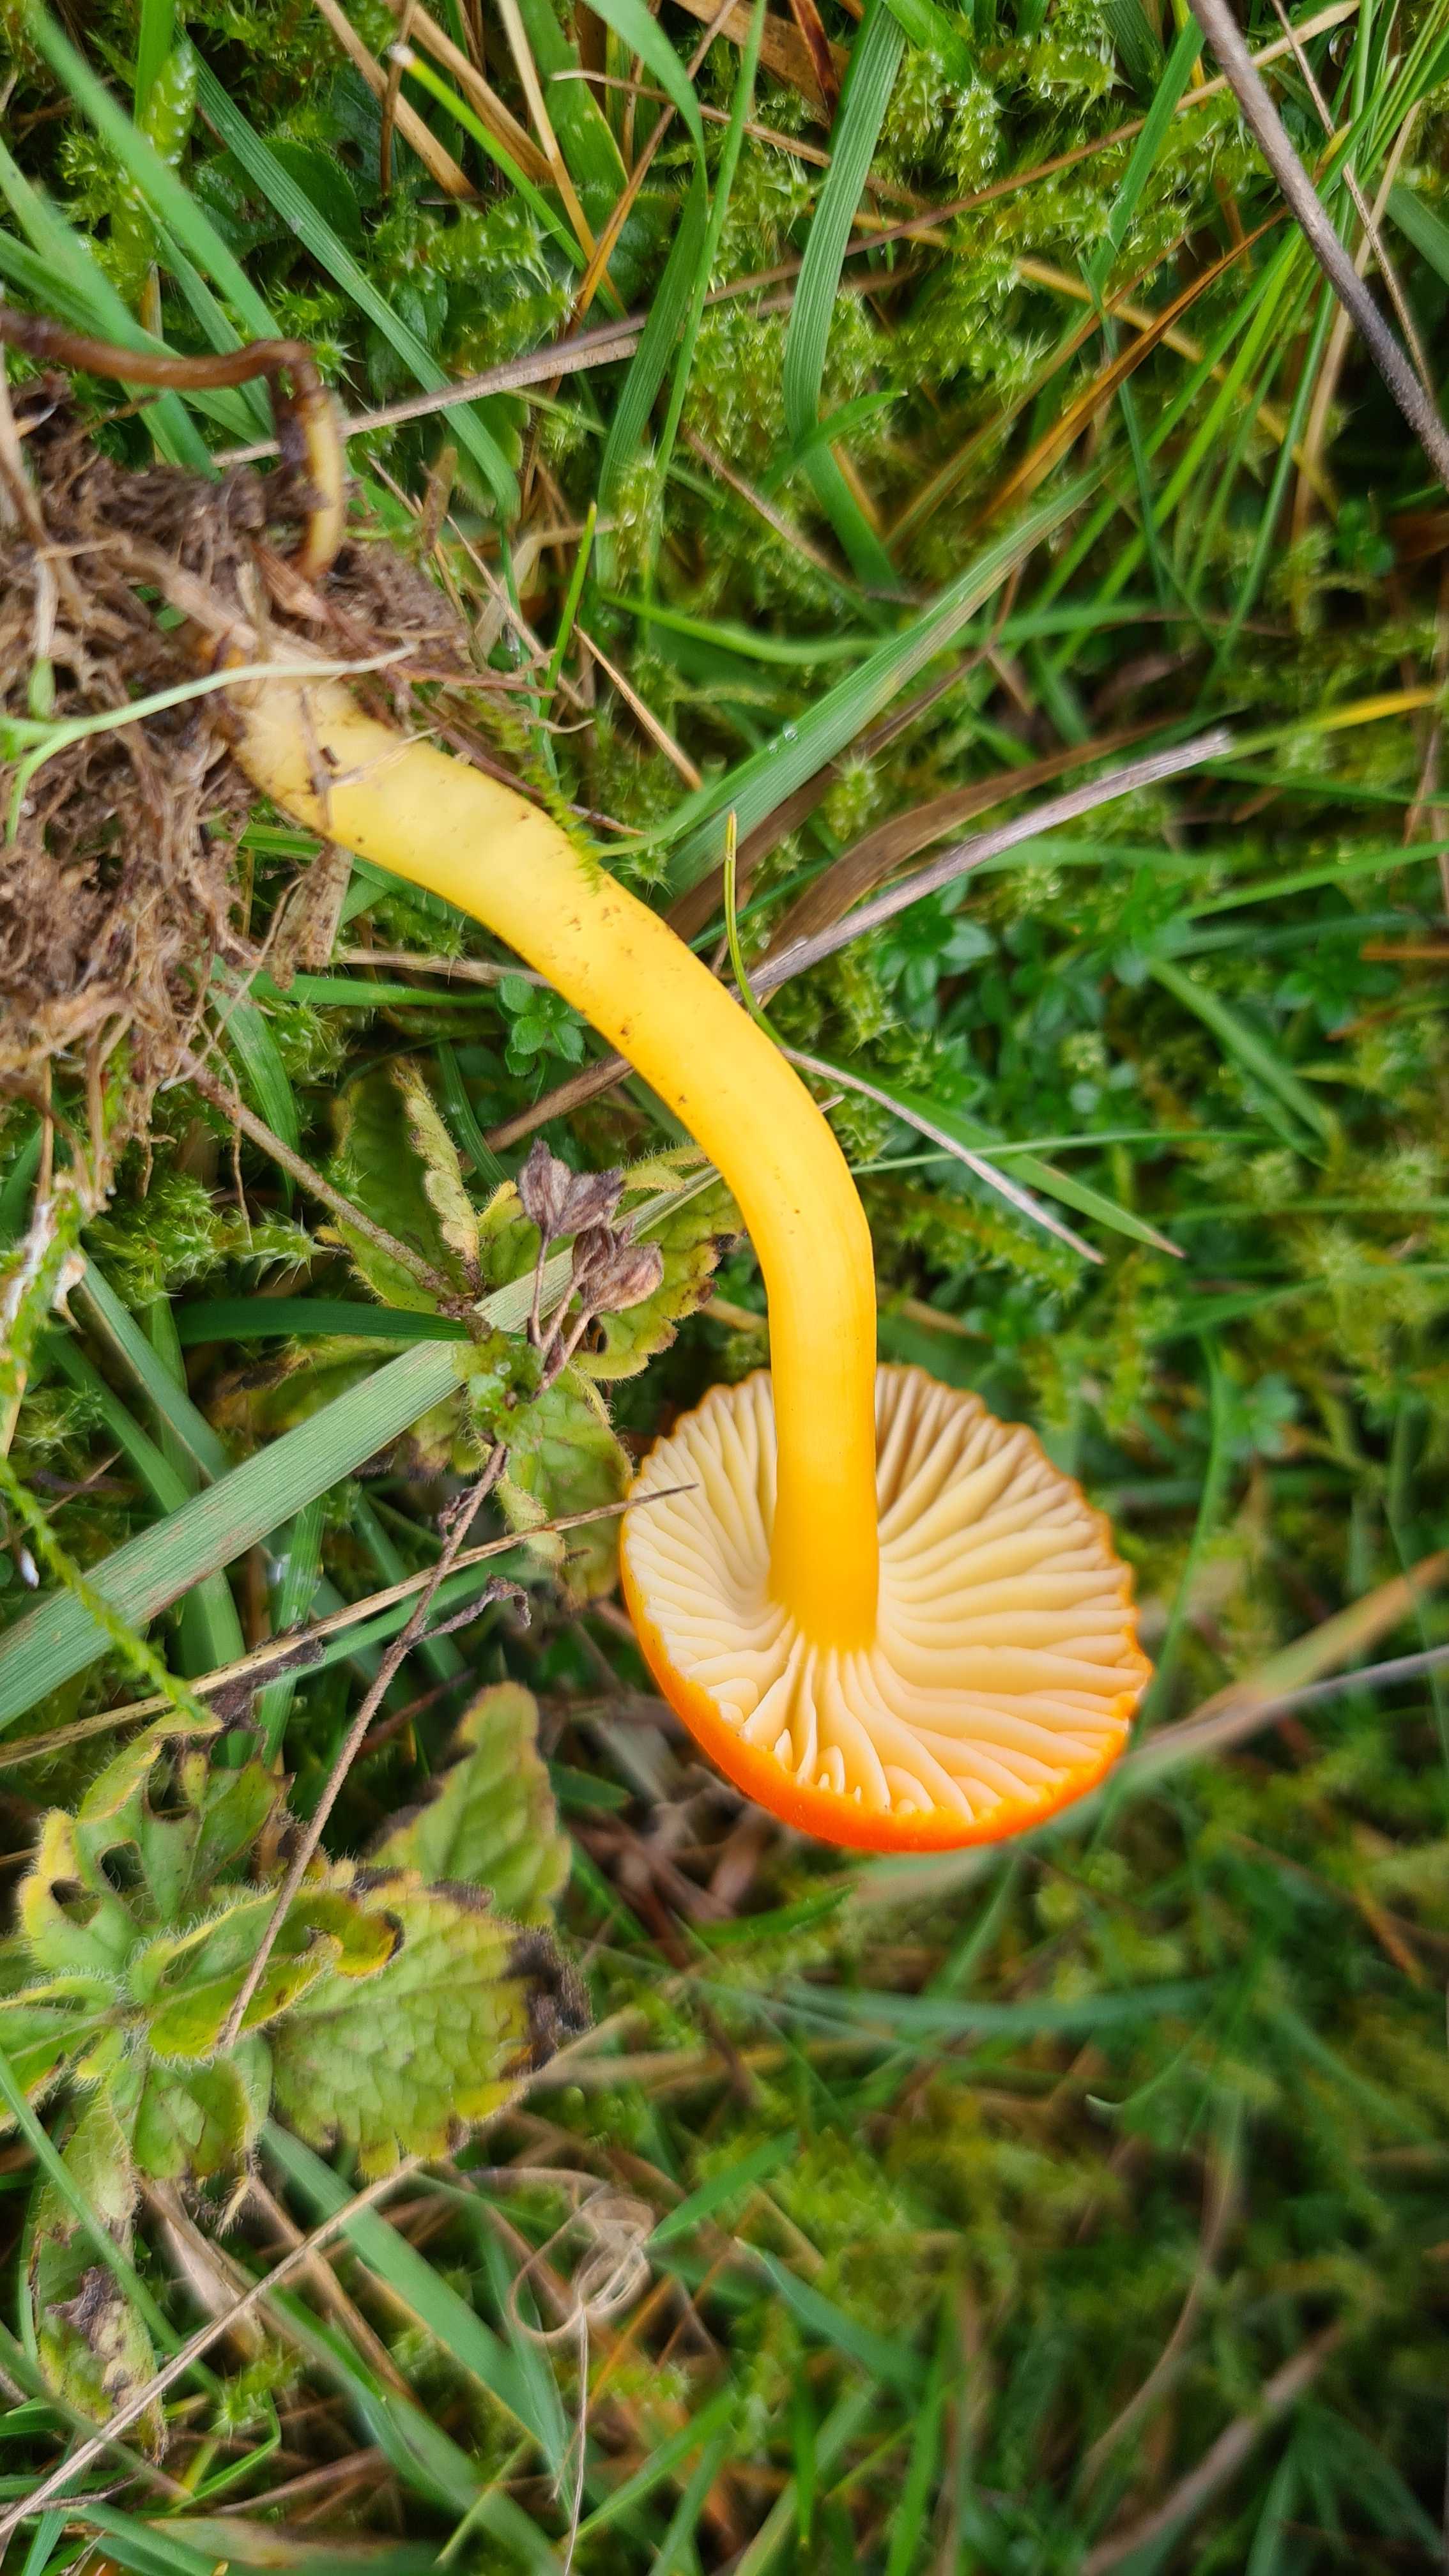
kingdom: Fungi
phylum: Basidiomycota
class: Agaricomycetes
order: Agaricales
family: Hygrophoraceae
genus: Hygrocybe
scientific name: Hygrocybe reidii
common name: honning-vokshat
